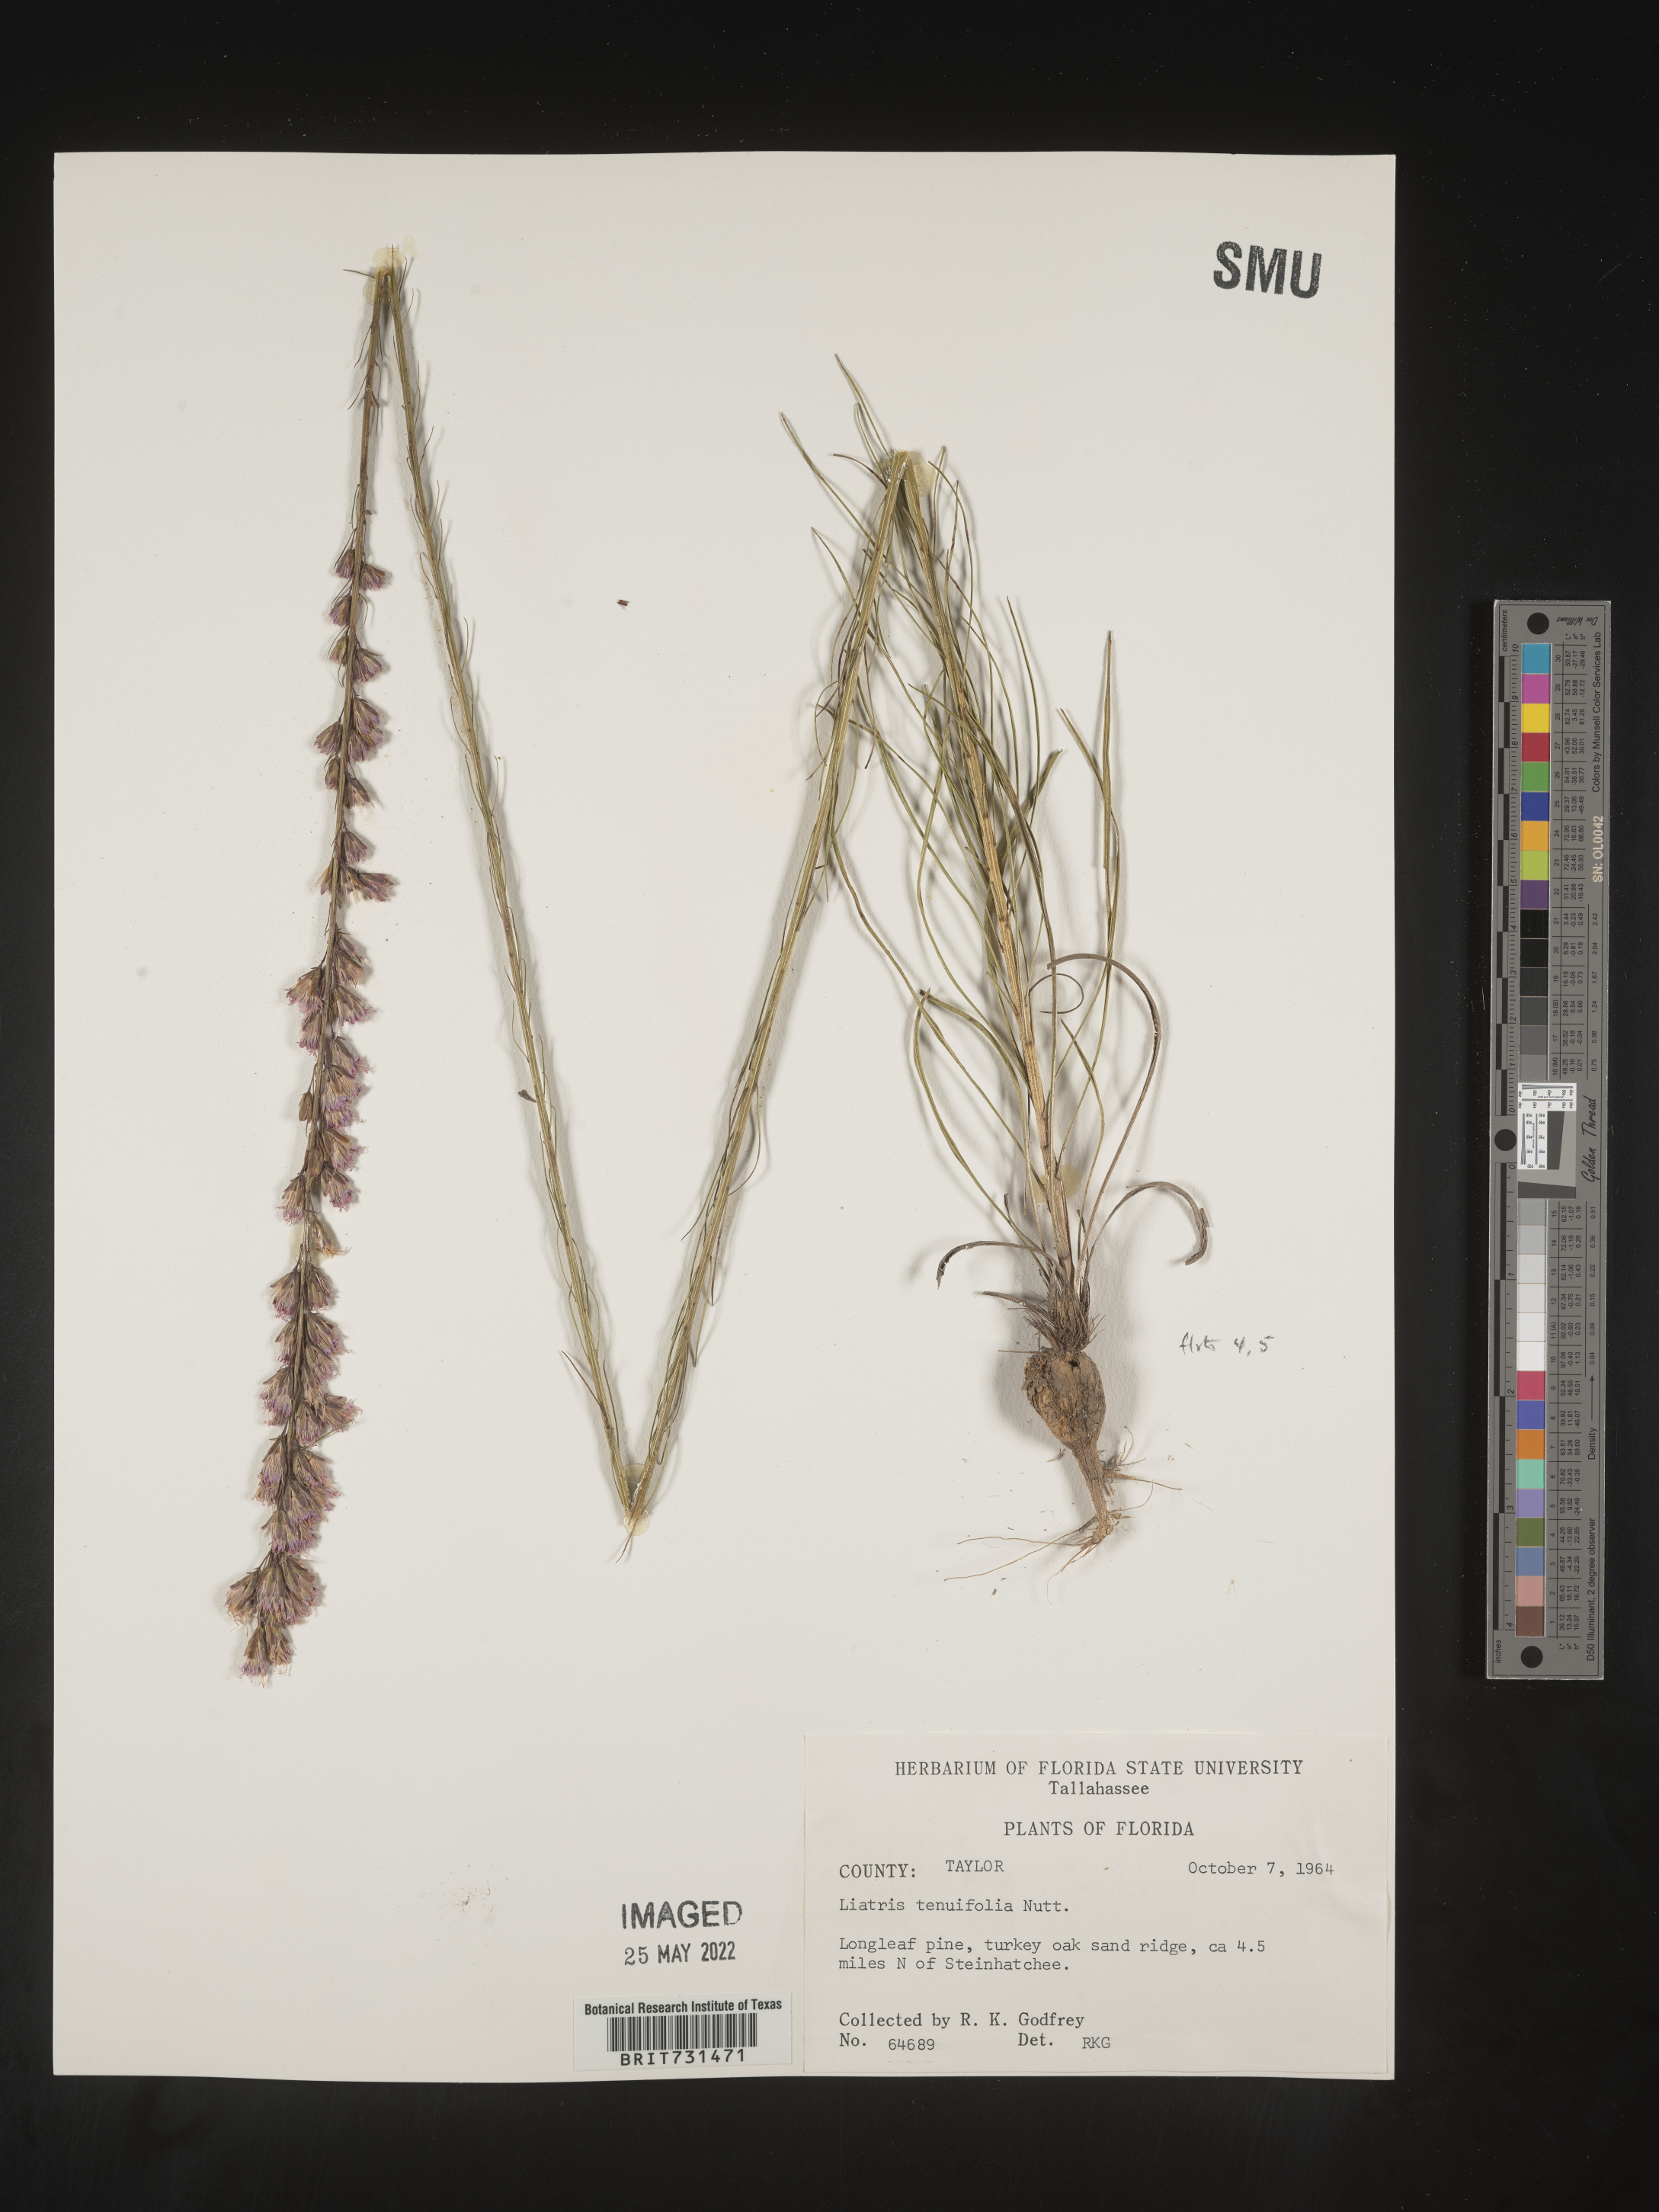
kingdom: Plantae
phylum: Tracheophyta
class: Magnoliopsida
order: Asterales
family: Asteraceae
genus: Liatris
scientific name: Liatris tenuifolia
